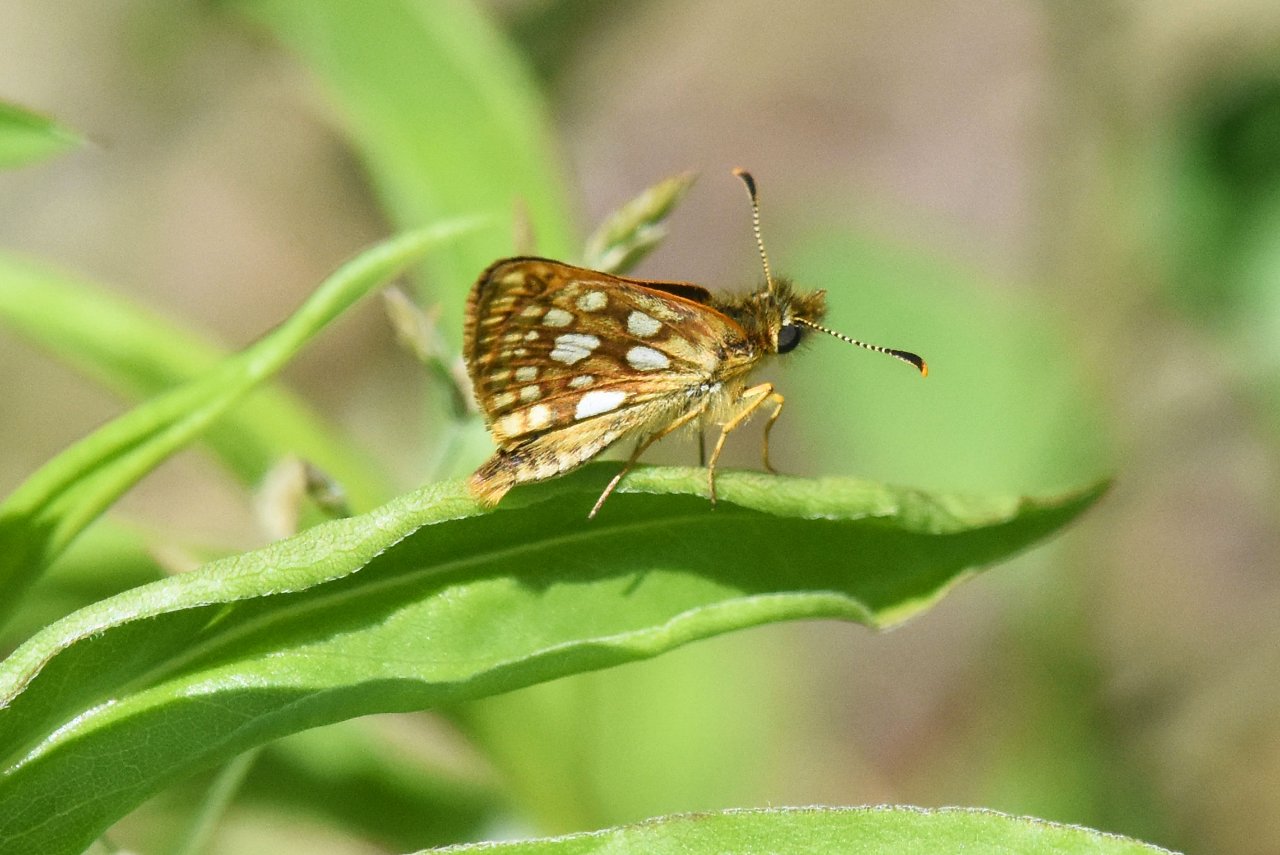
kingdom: Animalia
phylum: Arthropoda
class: Insecta
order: Lepidoptera
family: Hesperiidae
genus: Carterocephalus
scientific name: Carterocephalus palaemon
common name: Chequered Skipper
